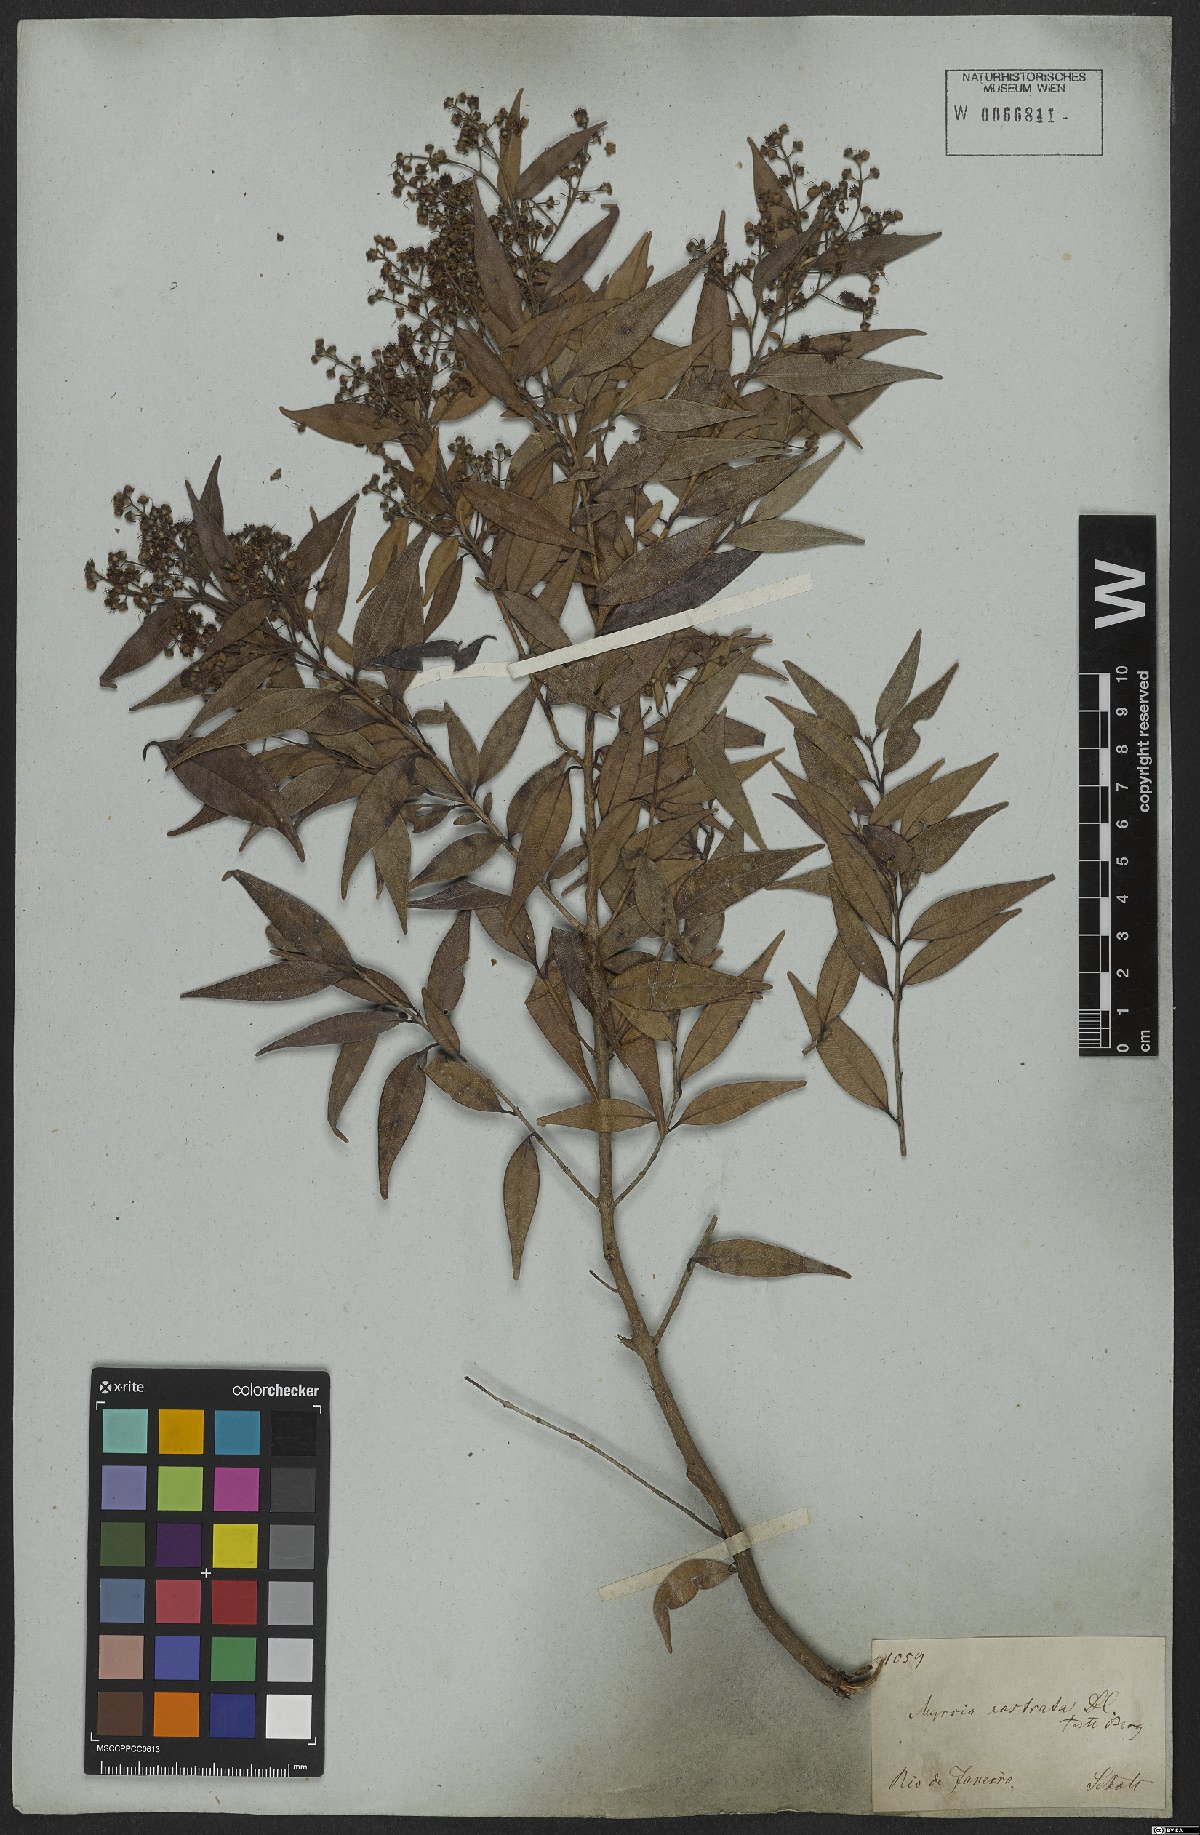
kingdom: Plantae
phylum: Tracheophyta
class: Magnoliopsida
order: Myrtales
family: Myrtaceae
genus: Myrcia
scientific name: Myrcia splendens
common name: Surinam cherry
